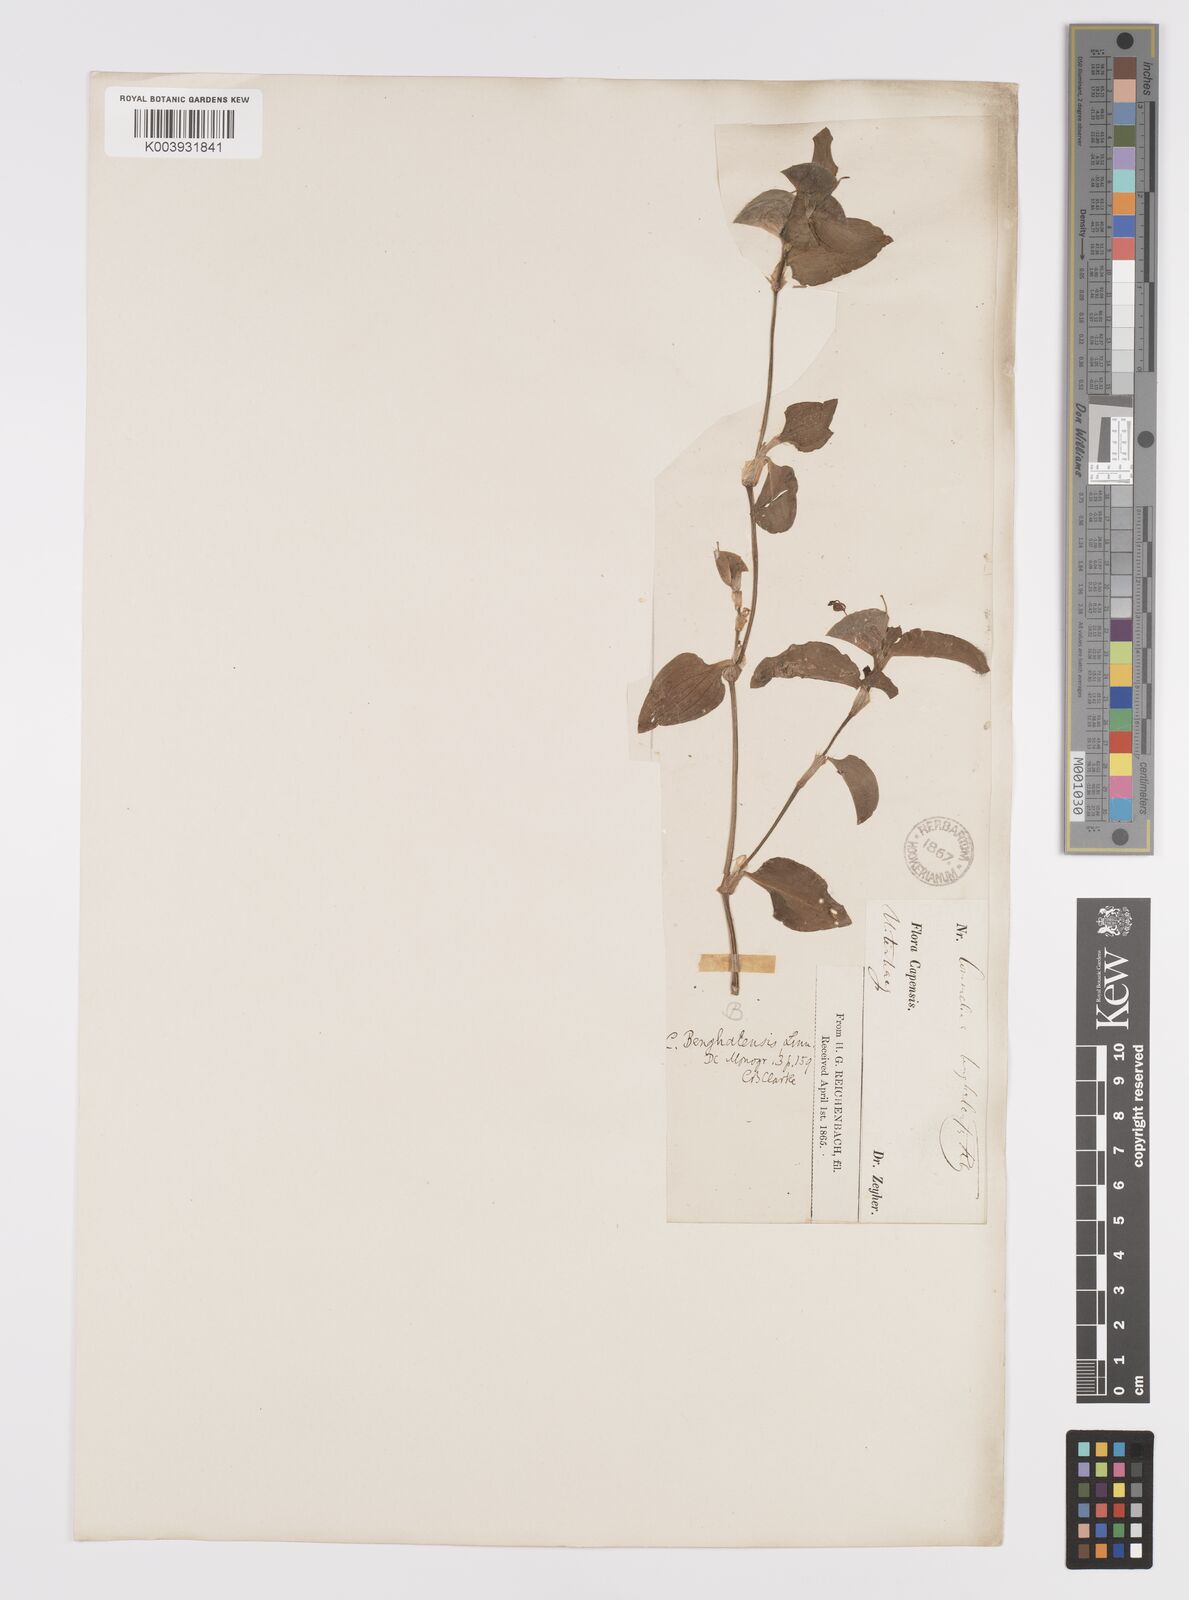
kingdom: Plantae
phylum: Tracheophyta
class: Liliopsida
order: Commelinales
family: Commelinaceae
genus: Commelina
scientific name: Commelina benghalensis
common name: Jio
